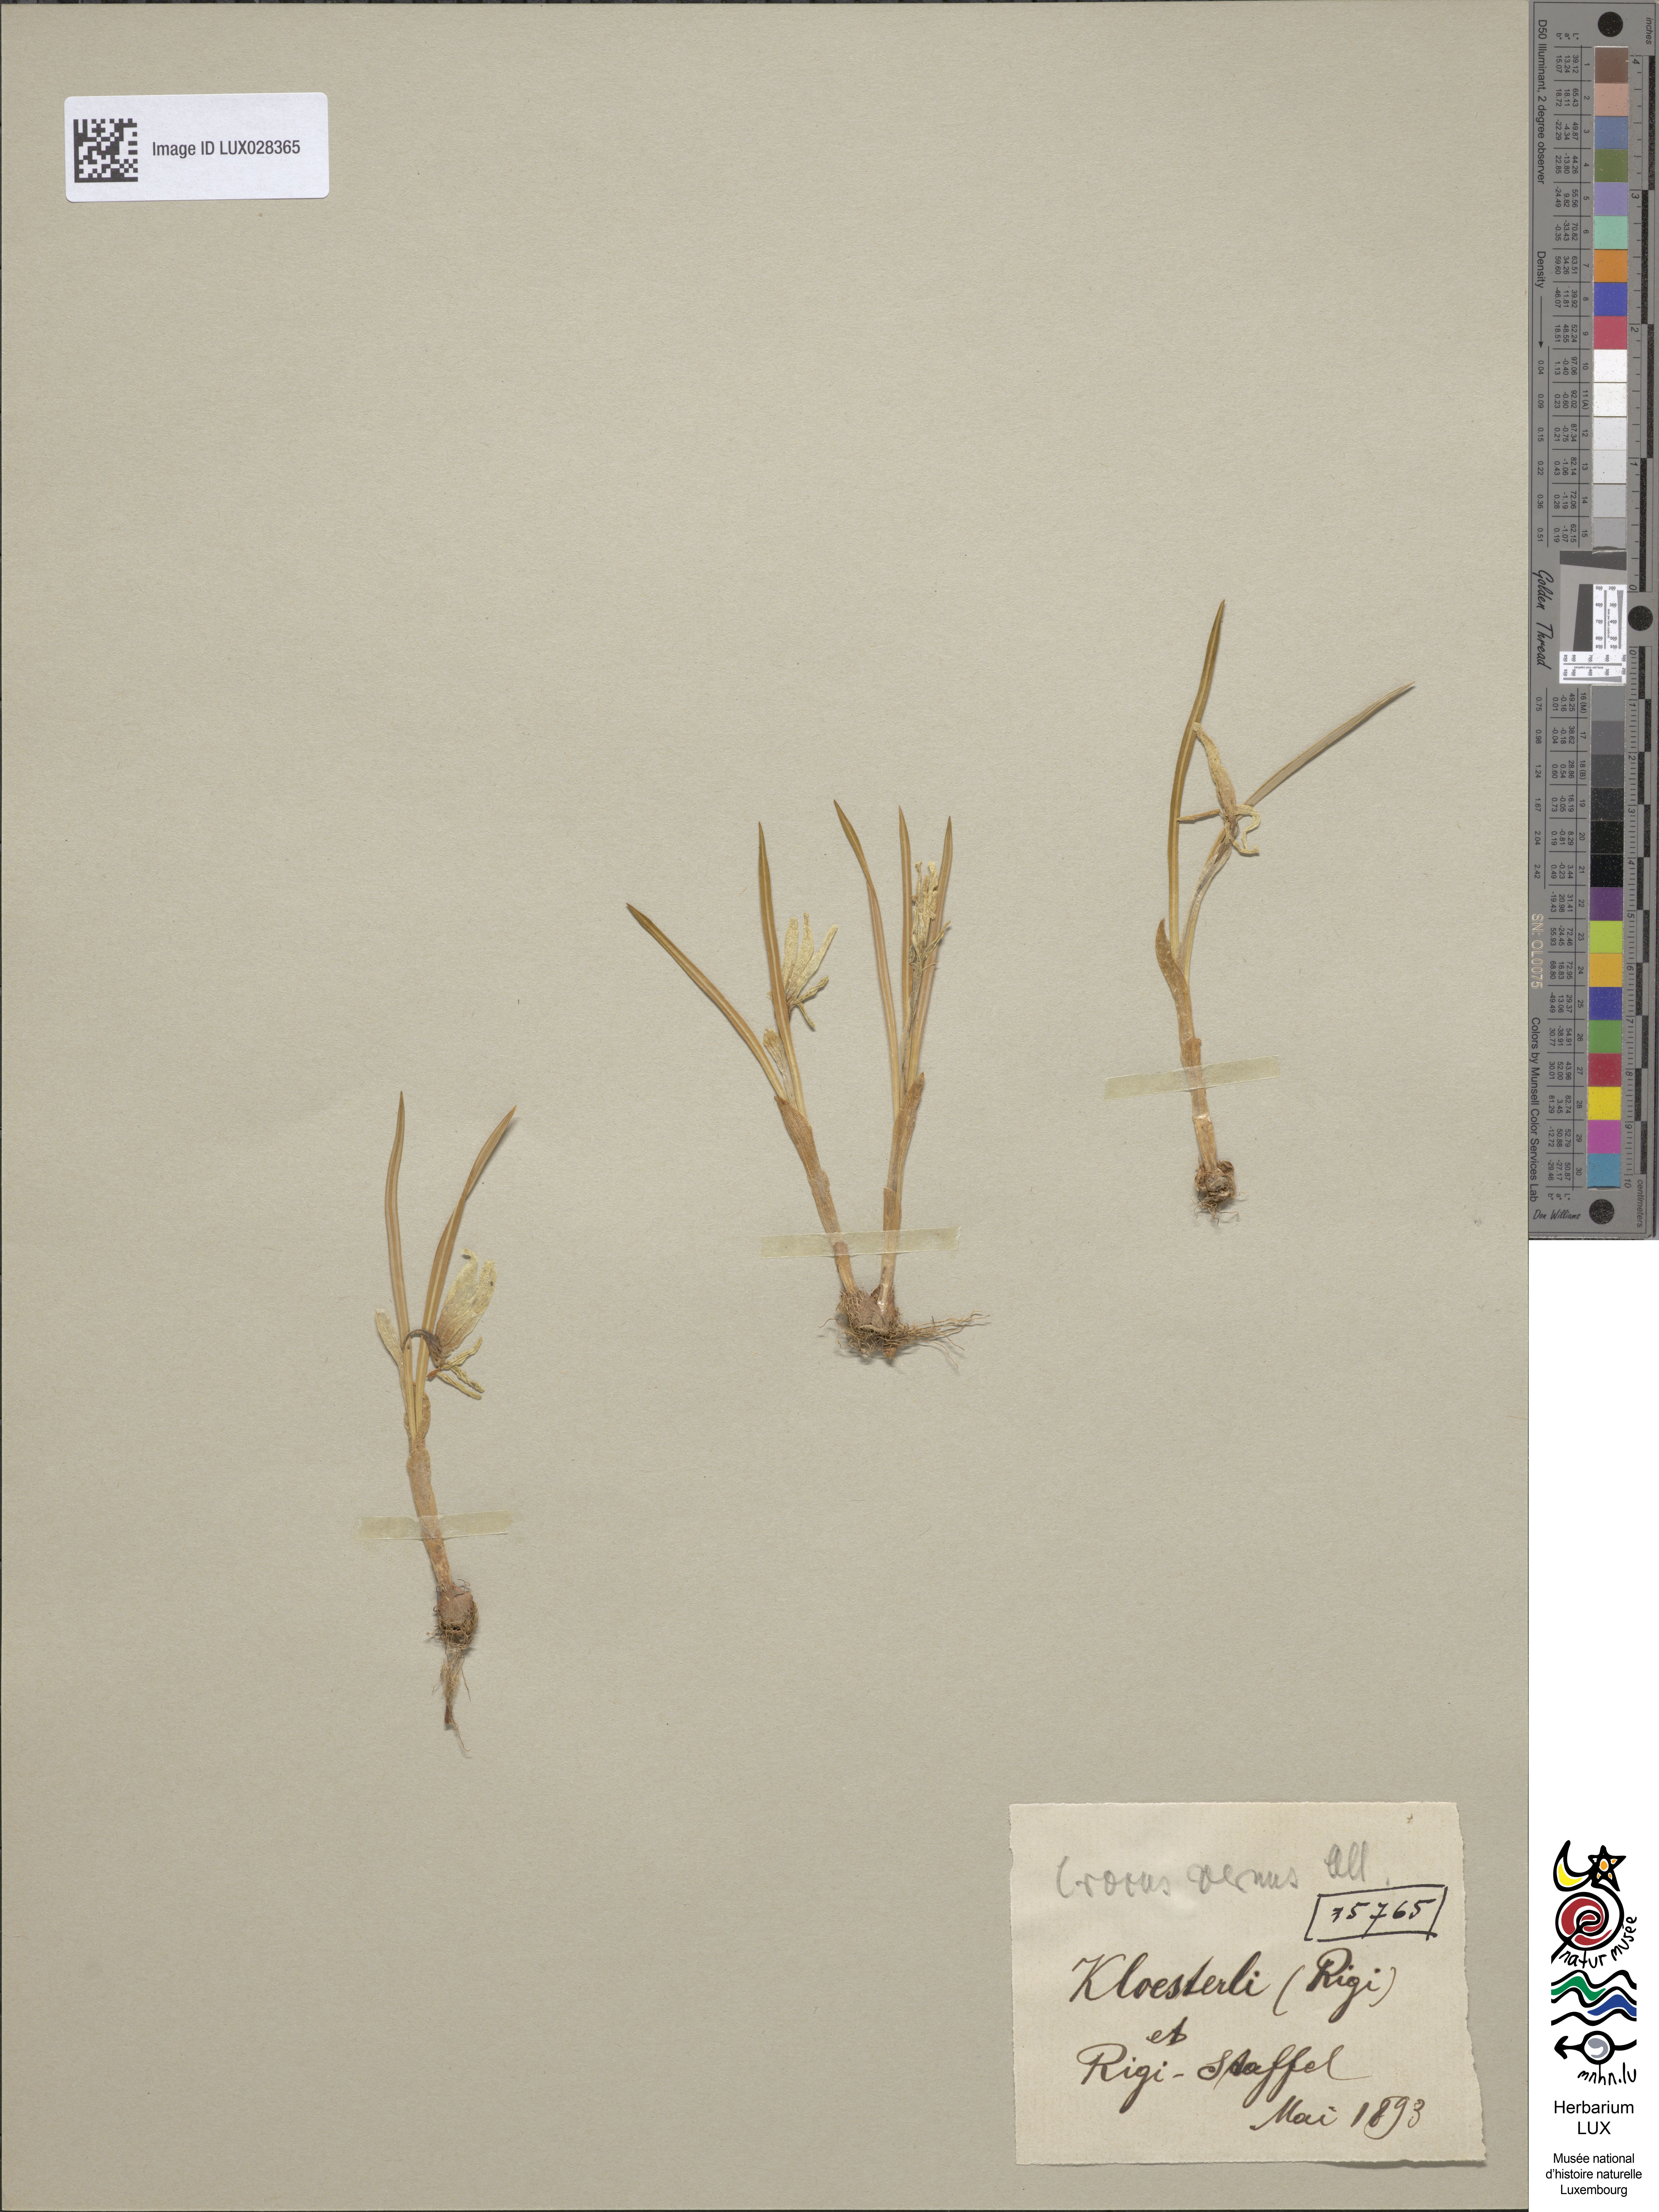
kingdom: Plantae
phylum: Tracheophyta
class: Liliopsida
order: Asparagales
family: Iridaceae
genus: Crocus
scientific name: Crocus vernus
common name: Spring crocus
